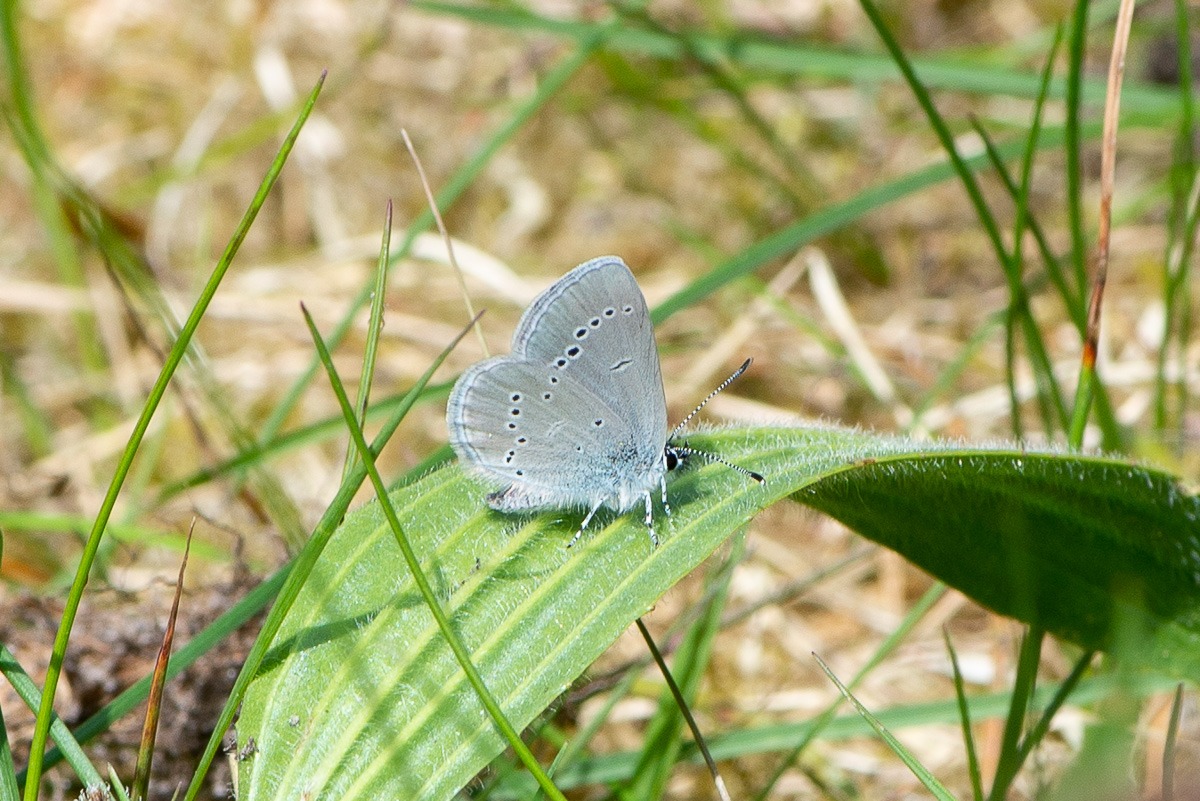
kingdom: Animalia
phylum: Arthropoda
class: Insecta
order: Lepidoptera
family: Lycaenidae
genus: Cupido
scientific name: Cupido minimus
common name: Dværgblåfugl
